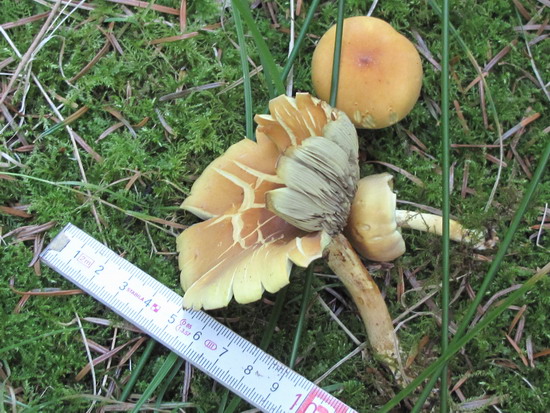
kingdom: Fungi
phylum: Basidiomycota
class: Agaricomycetes
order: Agaricales
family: Strophariaceae
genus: Hypholoma
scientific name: Hypholoma fasciculare
